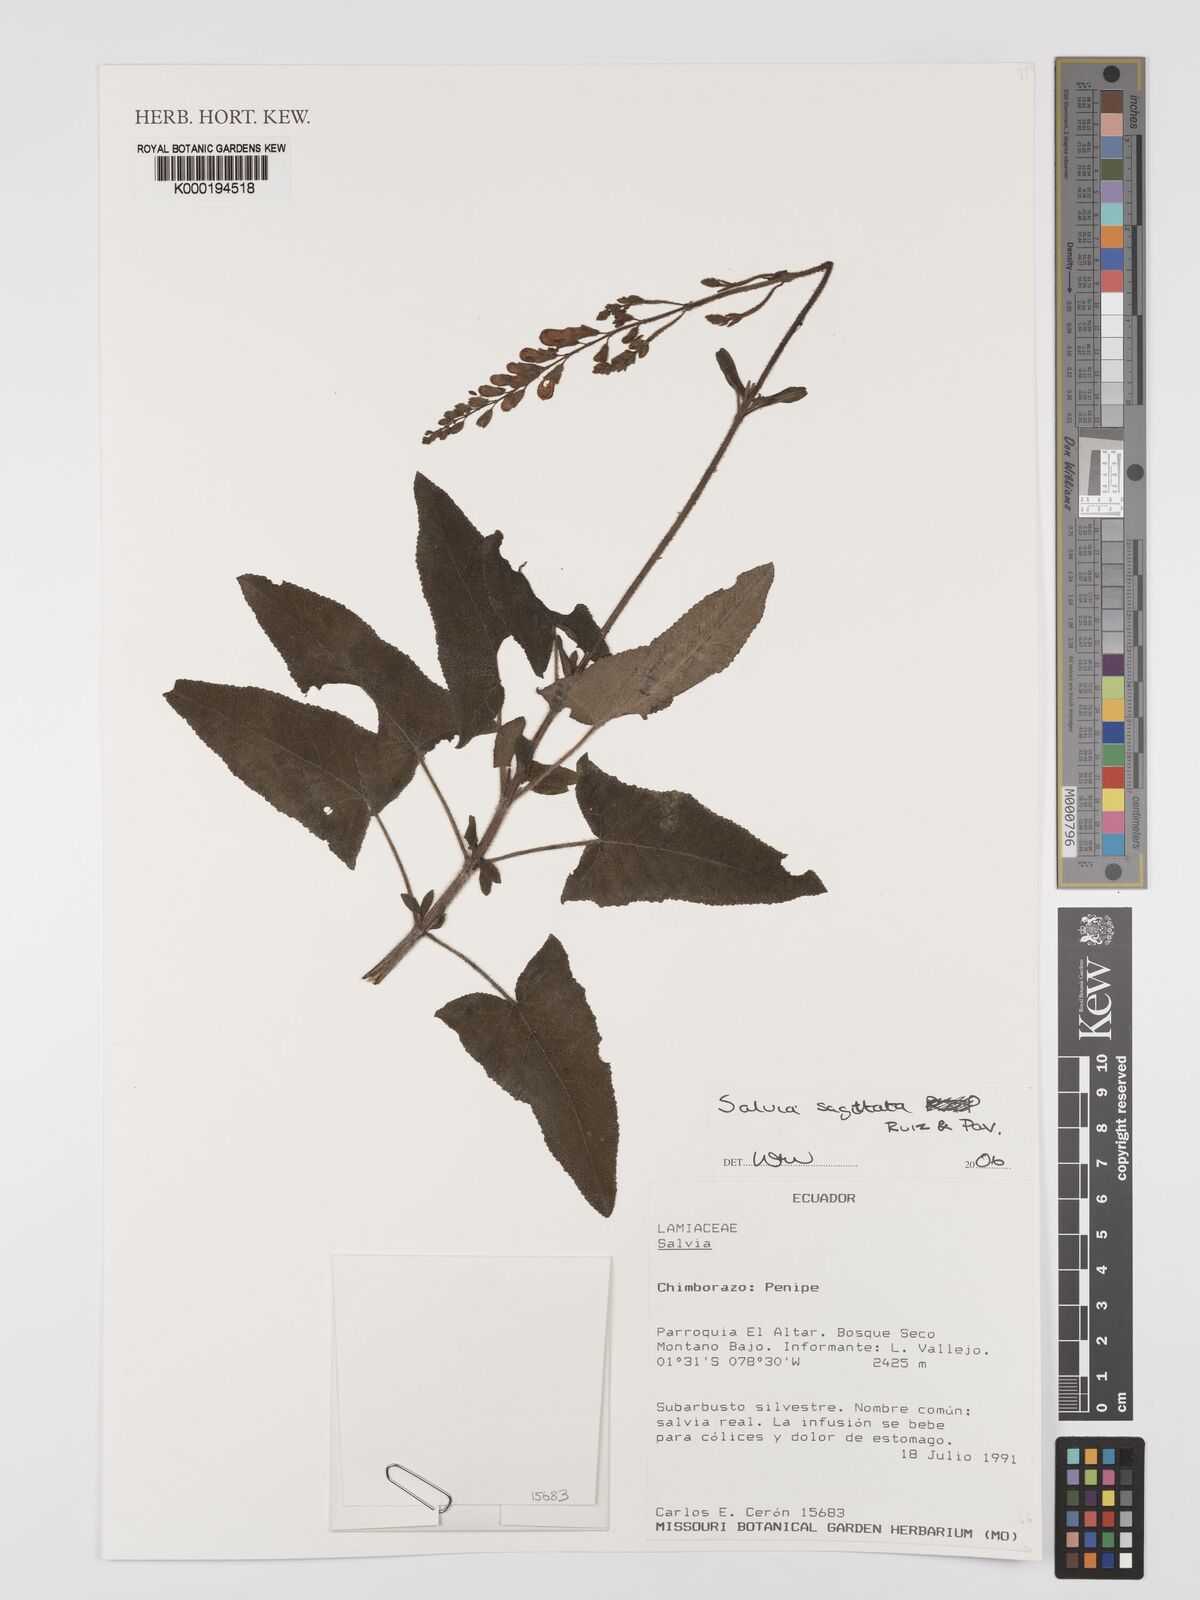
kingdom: Plantae
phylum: Tracheophyta
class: Magnoliopsida
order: Lamiales
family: Lamiaceae
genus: Salvia
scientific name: Salvia sagittata
